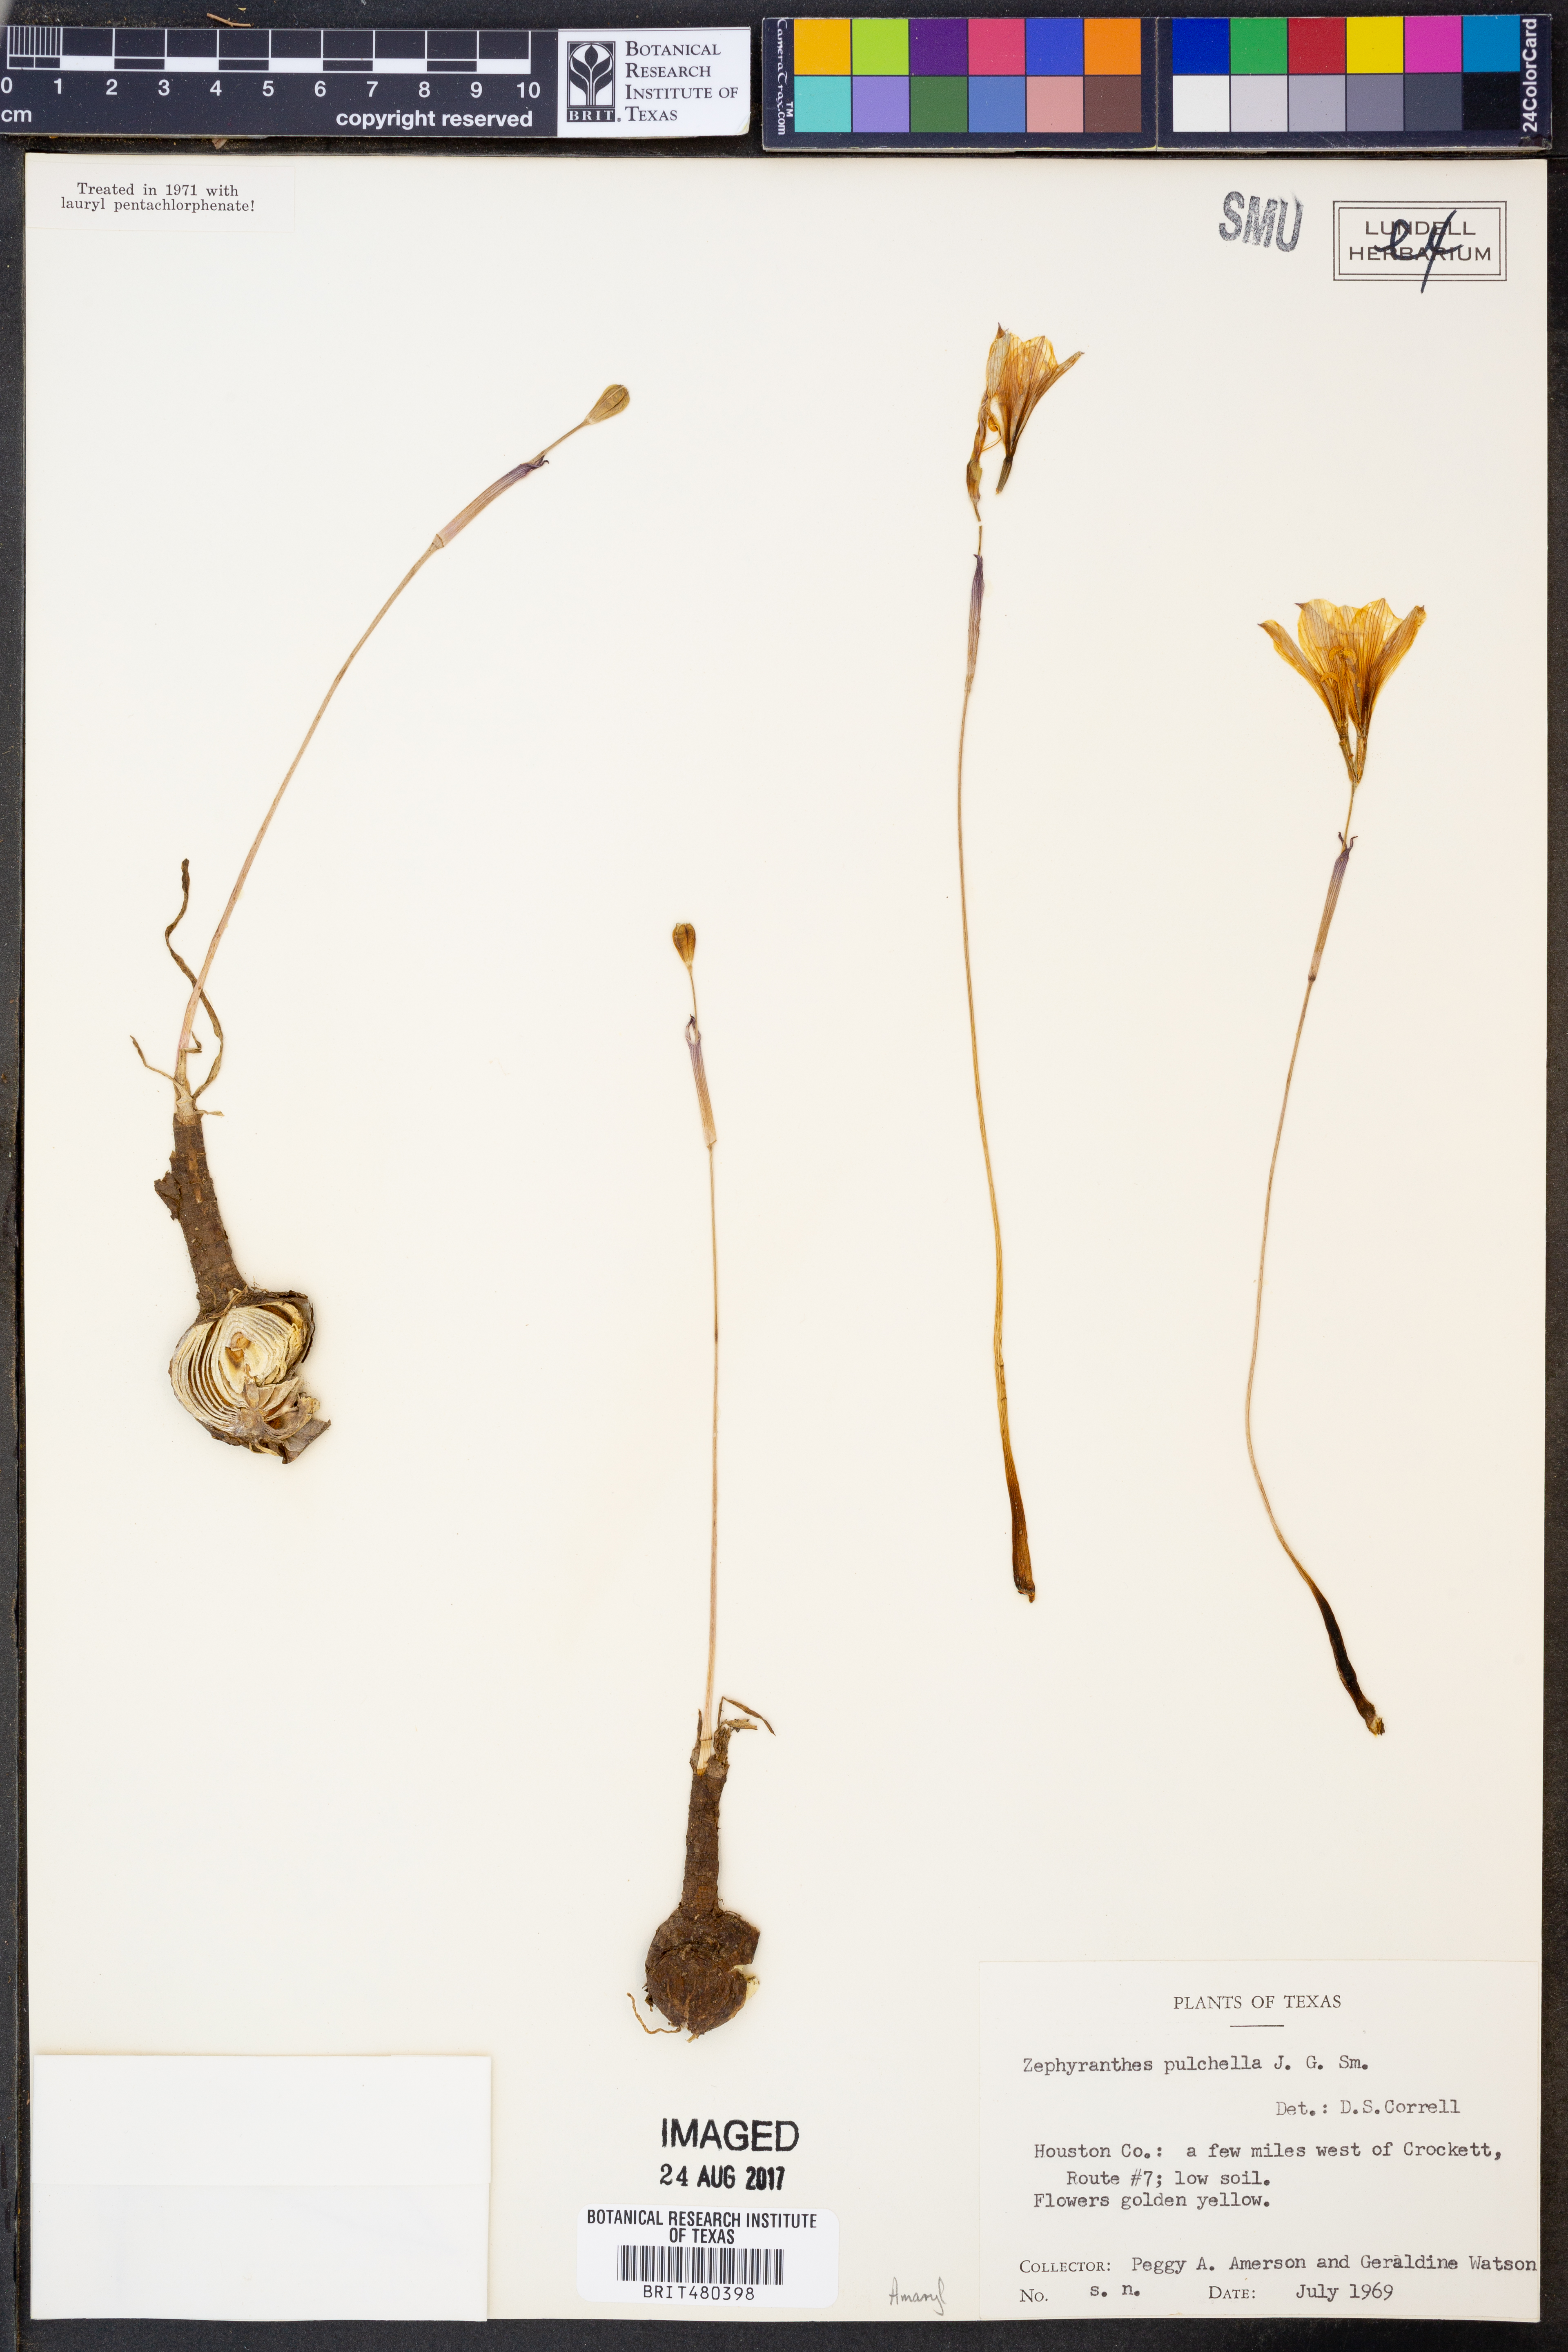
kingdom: Plantae
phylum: Tracheophyta
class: Liliopsida
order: Asparagales
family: Amaryllidaceae
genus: Zephyranthes
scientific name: Zephyranthes pulchella
